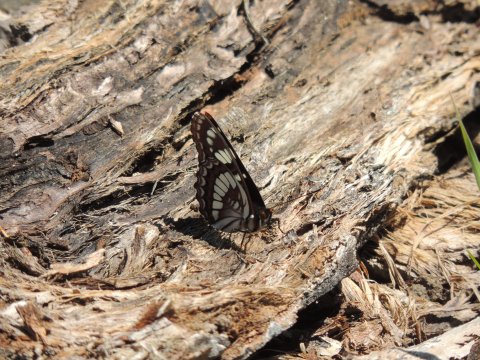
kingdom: Animalia
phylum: Arthropoda
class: Insecta
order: Lepidoptera
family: Nymphalidae
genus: Limenitis
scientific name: Limenitis lorquini
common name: Lorquin's Admiral
